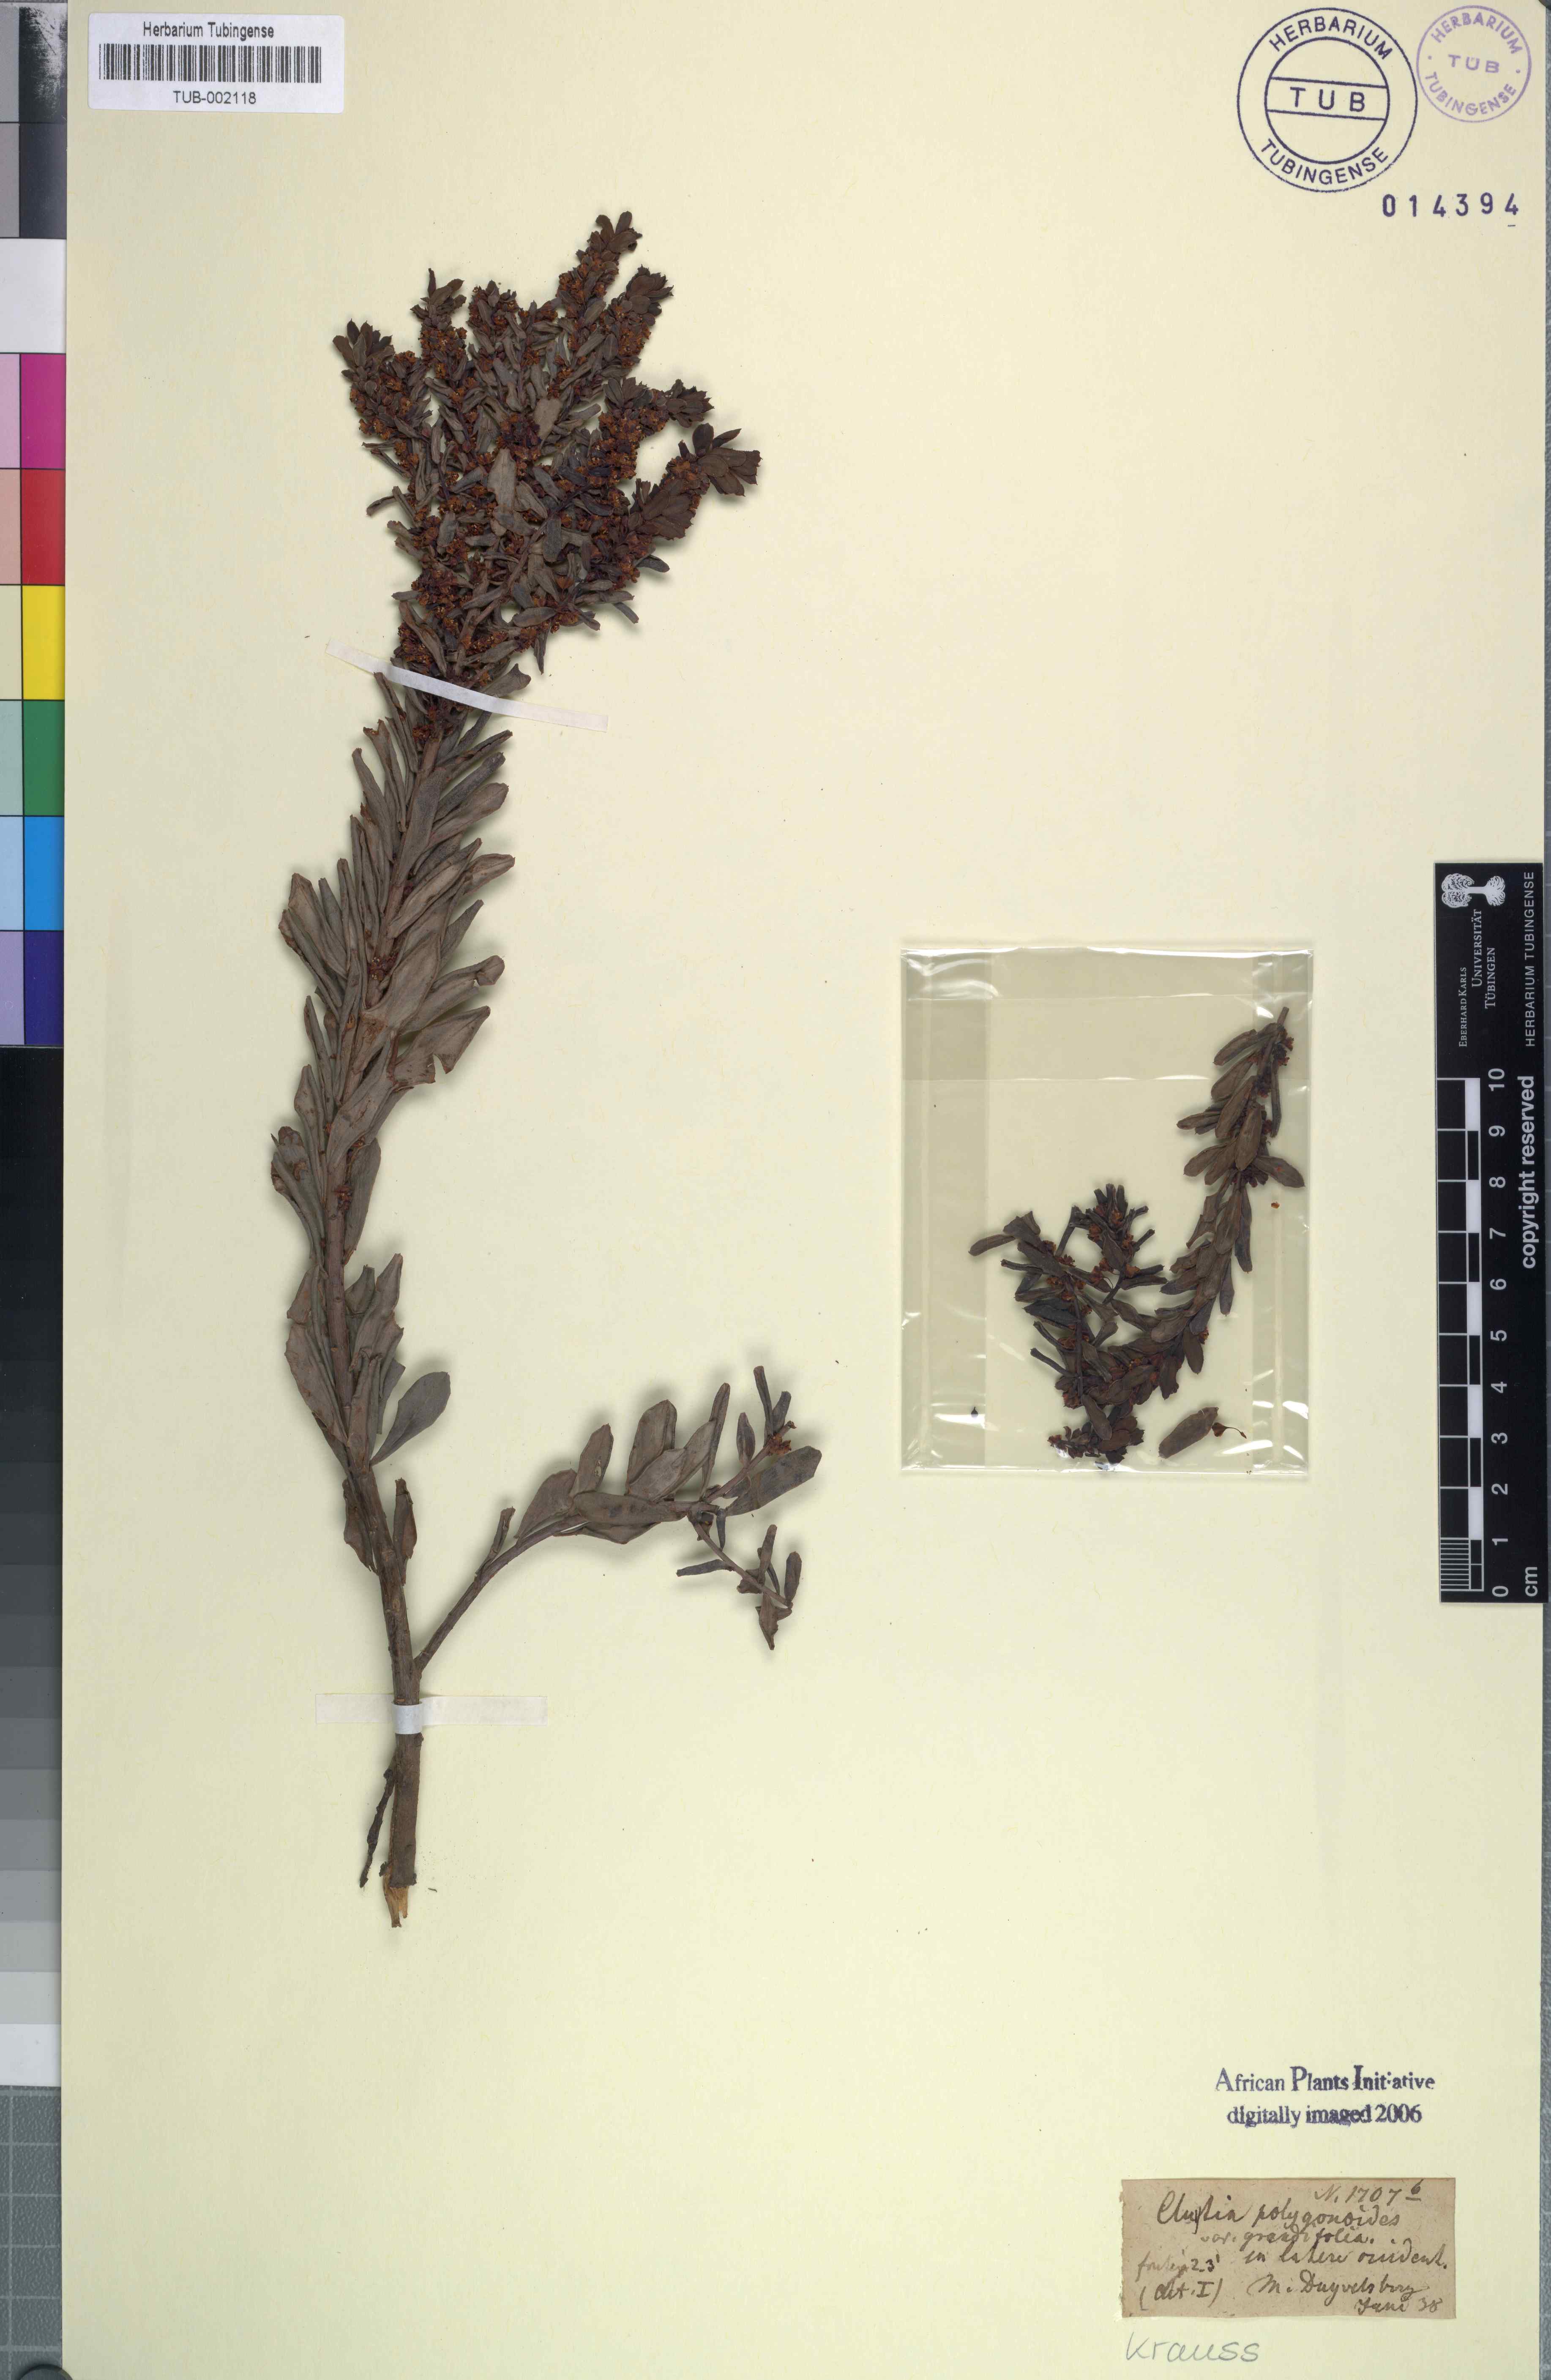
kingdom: Plantae
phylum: Tracheophyta
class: Magnoliopsida
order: Malpighiales
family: Peraceae
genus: Clutia
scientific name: Clutia polygonoides
